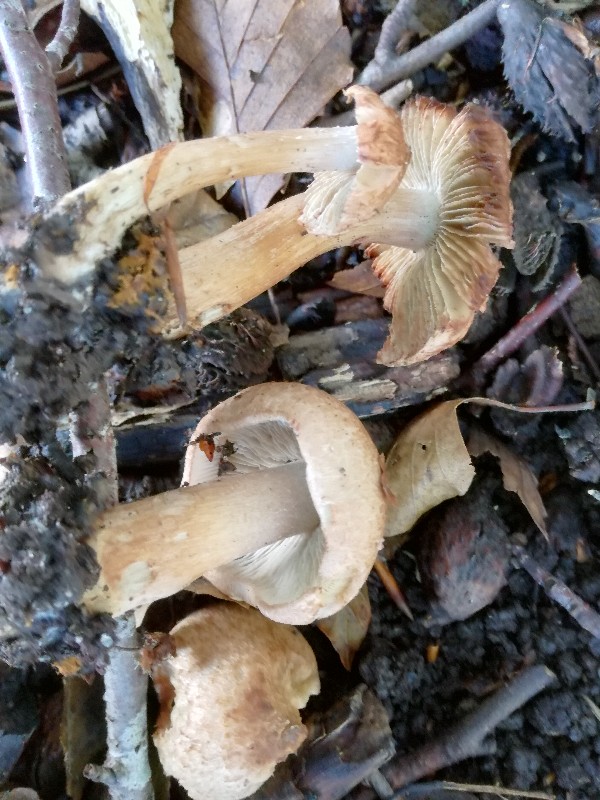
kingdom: Fungi
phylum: Basidiomycota
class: Agaricomycetes
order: Agaricales
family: Inocybaceae
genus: Inocybe
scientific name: Inocybe fraudans
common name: pæreduftende trævlhat
